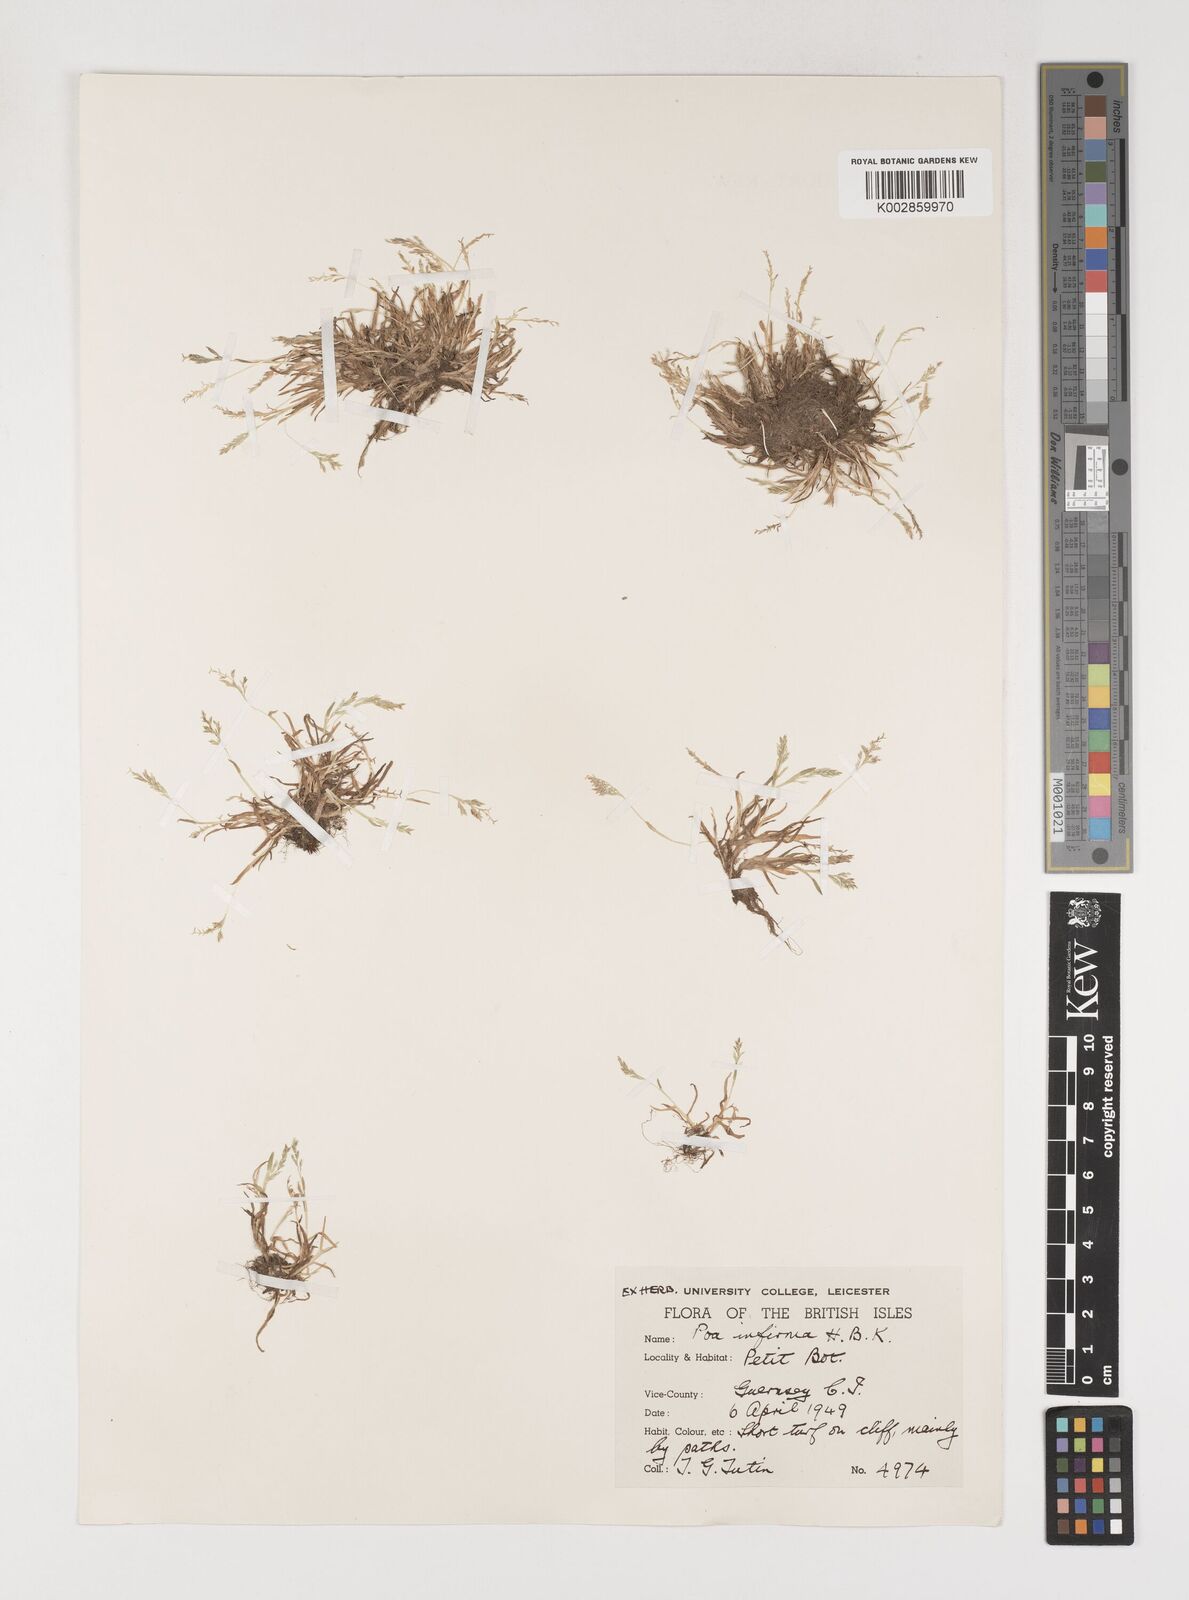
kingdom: Plantae
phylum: Tracheophyta
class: Liliopsida
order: Poales
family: Poaceae
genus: Poa
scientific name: Poa infirma
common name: Weak bluegrass
